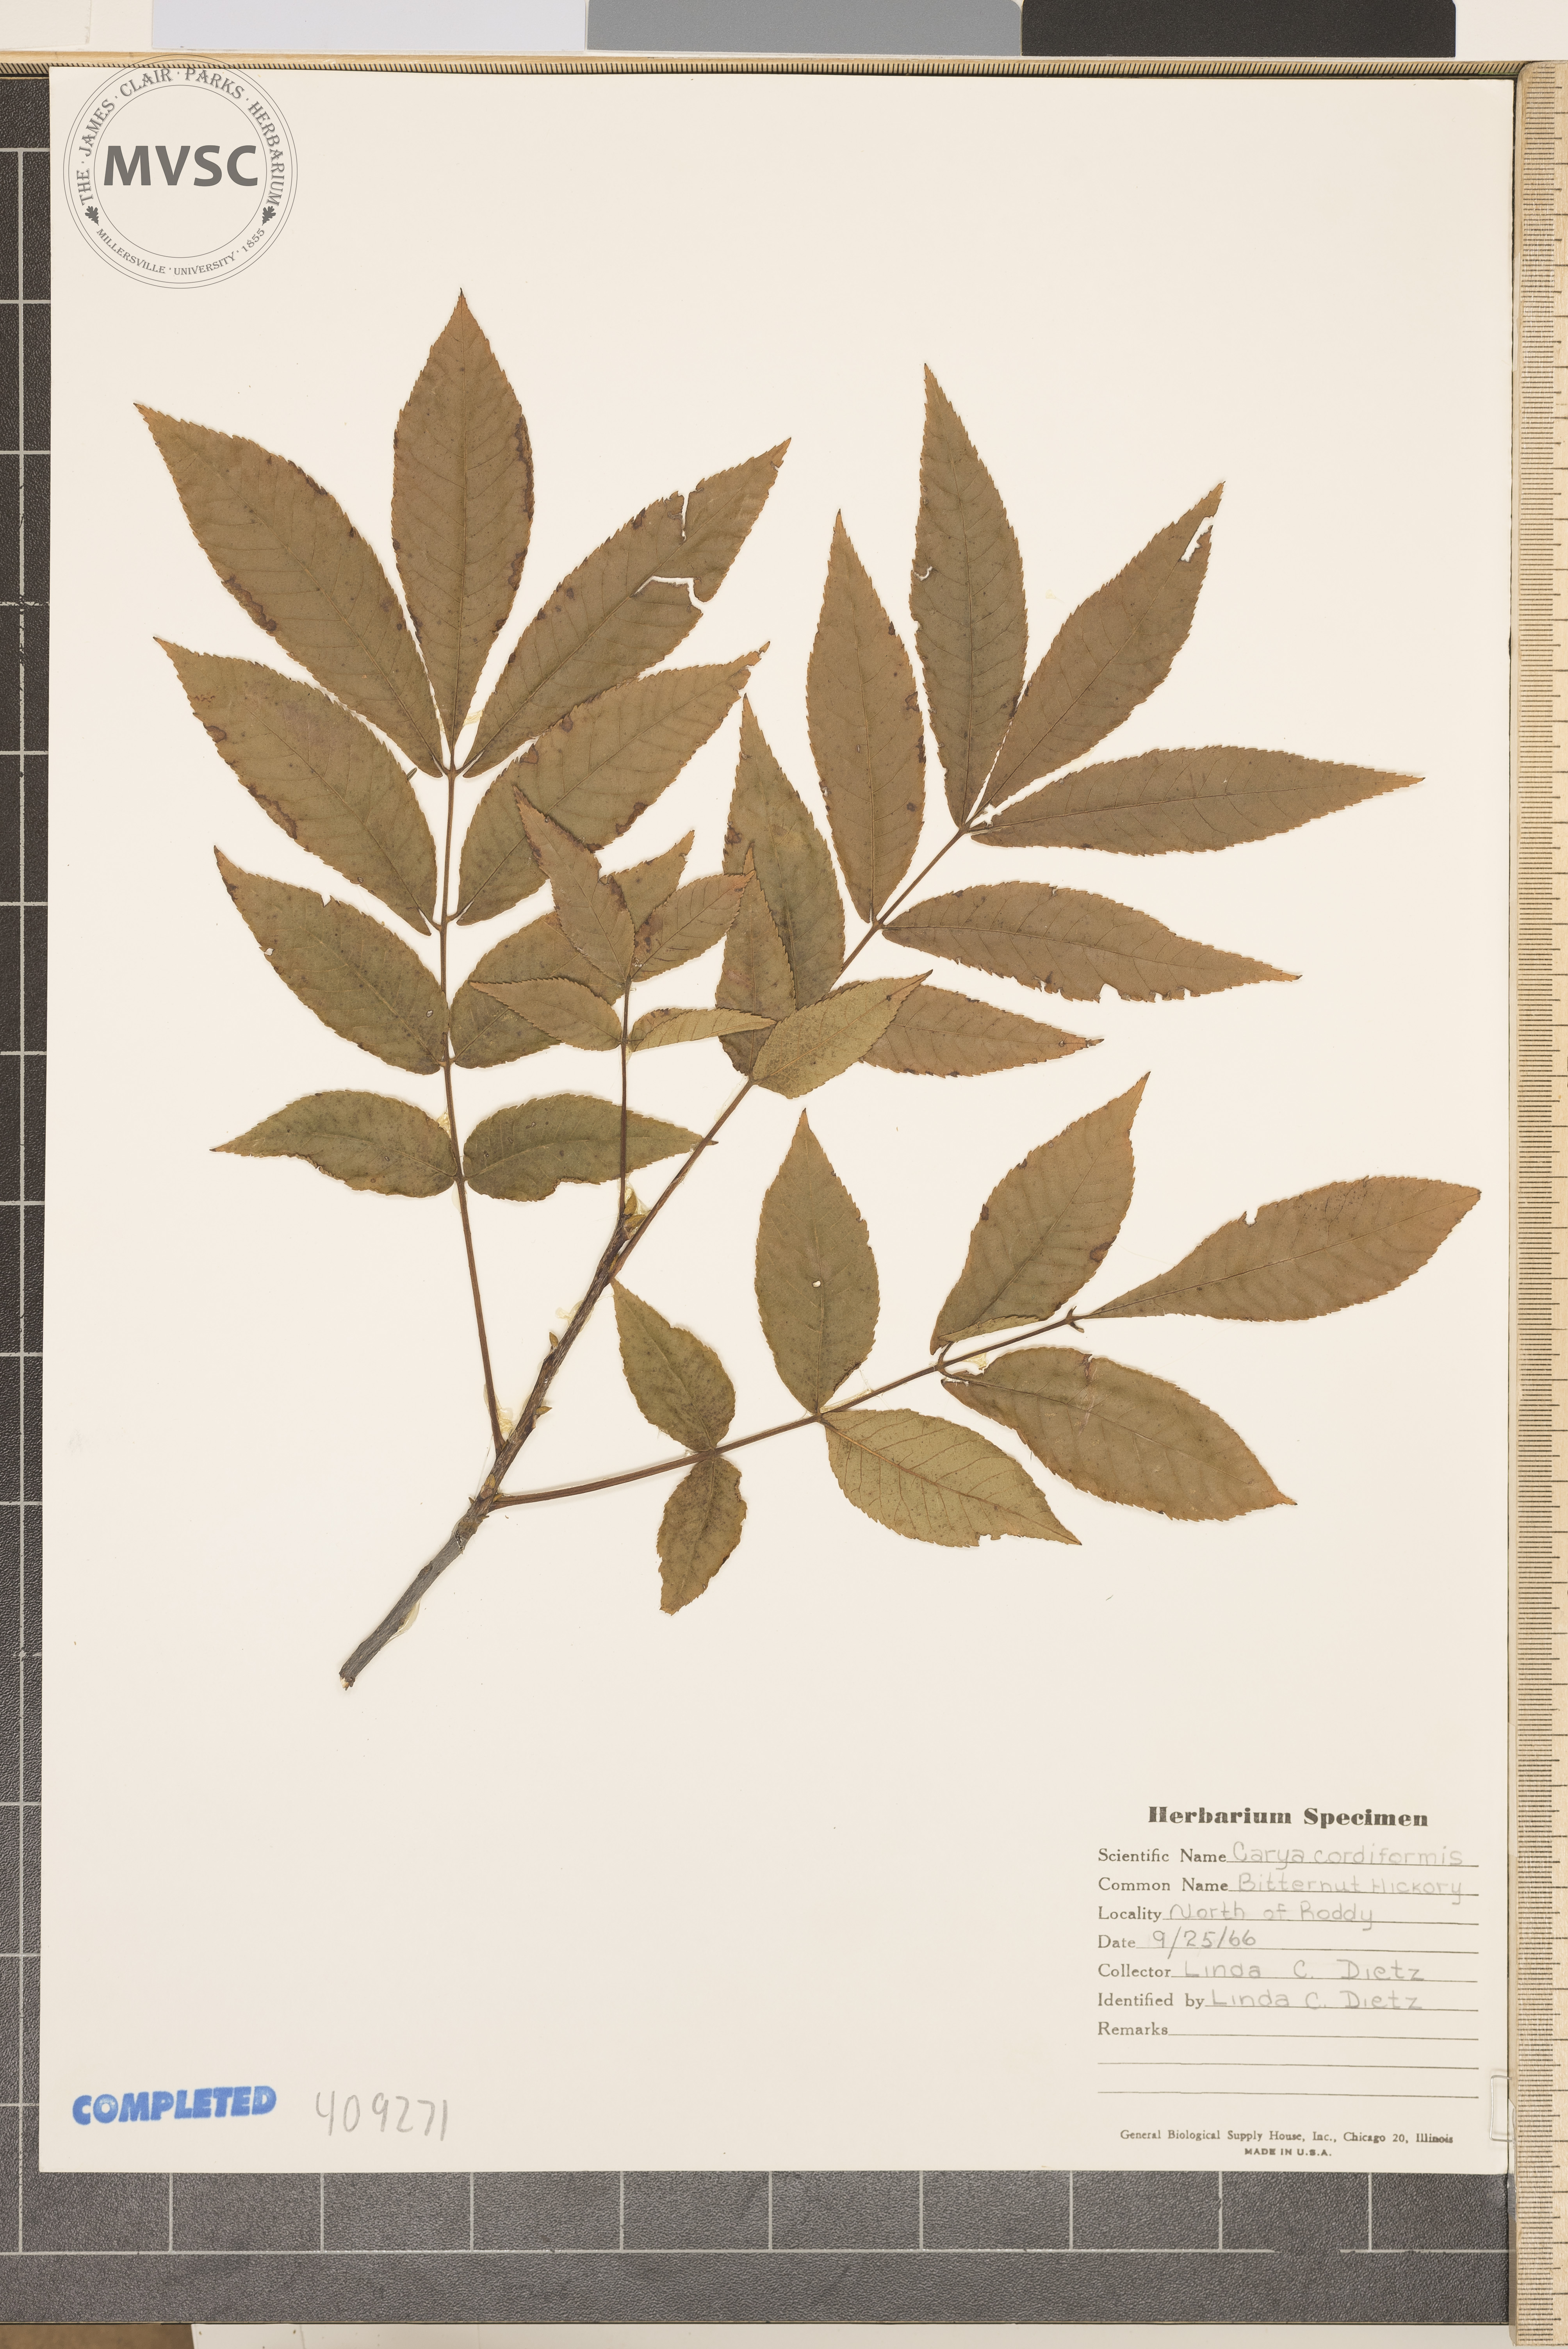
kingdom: Plantae
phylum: Tracheophyta
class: Magnoliopsida
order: Fagales
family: Juglandaceae
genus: Carya
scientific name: Carya cordiformis
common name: Bitternut hickory
